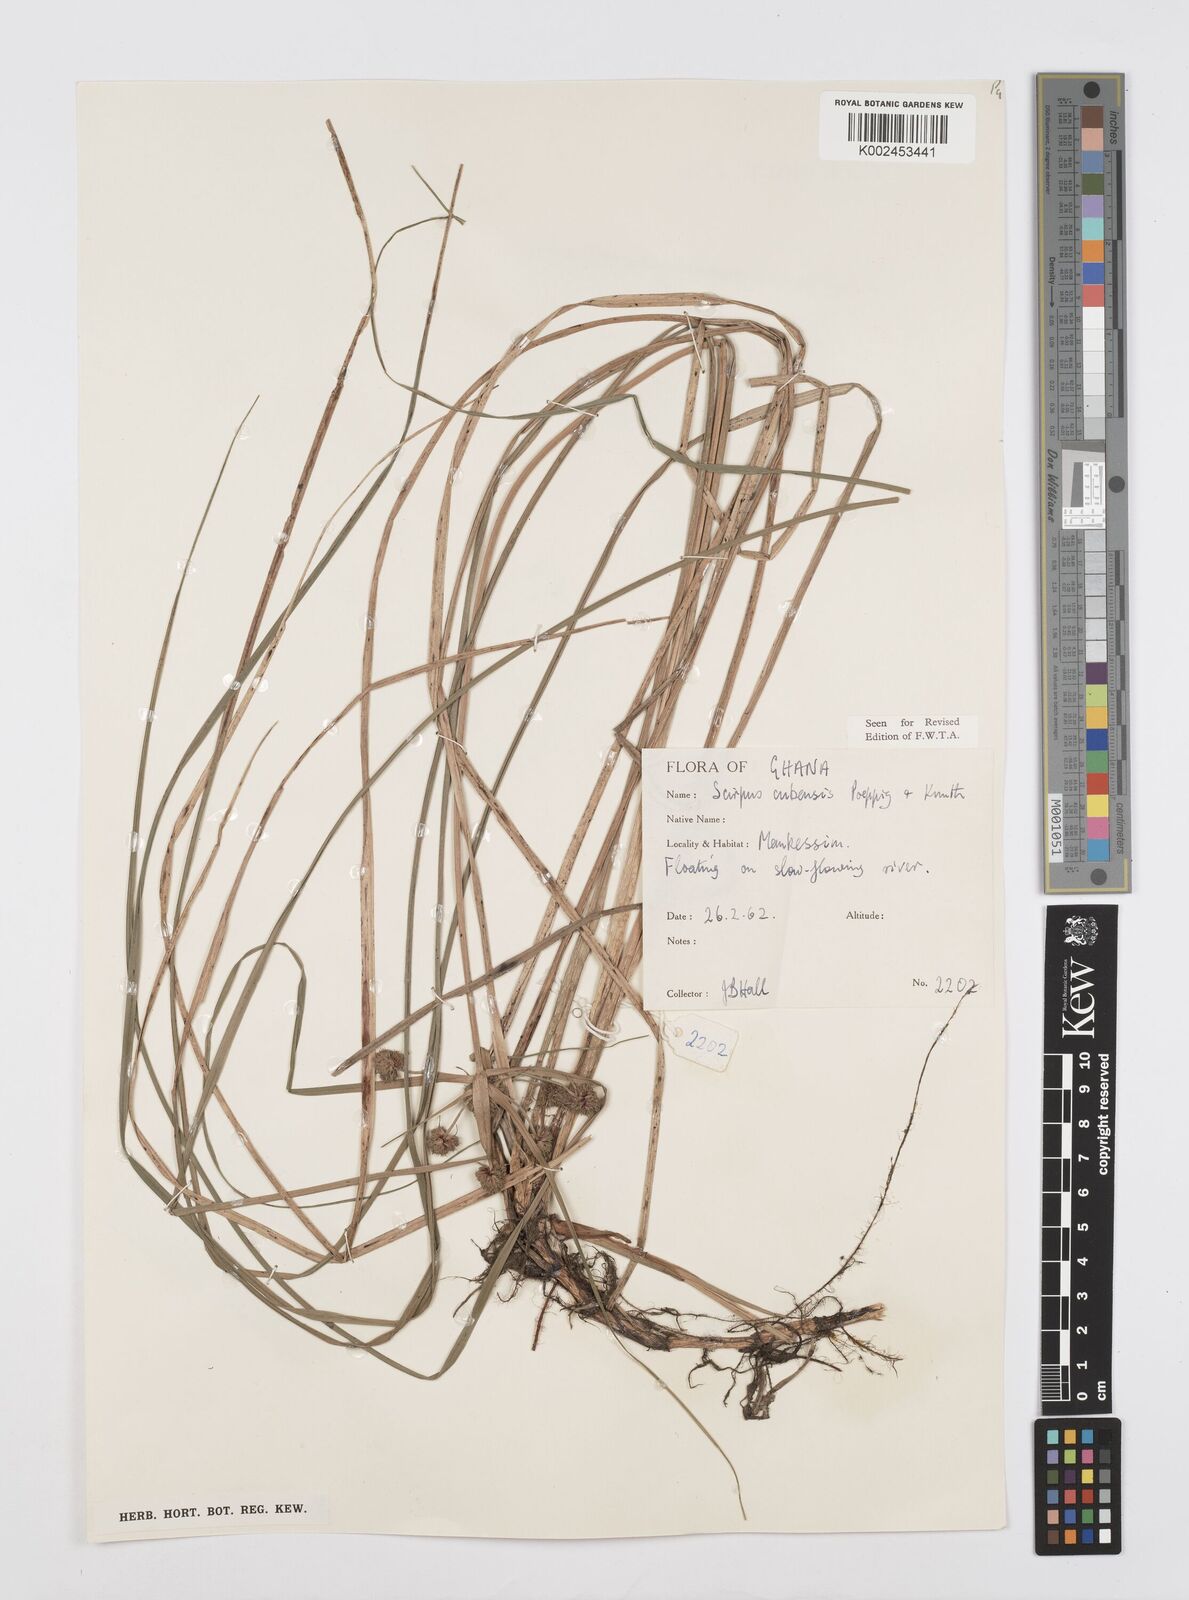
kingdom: Plantae
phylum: Tracheophyta
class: Liliopsida
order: Poales
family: Cyperaceae
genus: Cyperus
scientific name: Cyperus elegans
